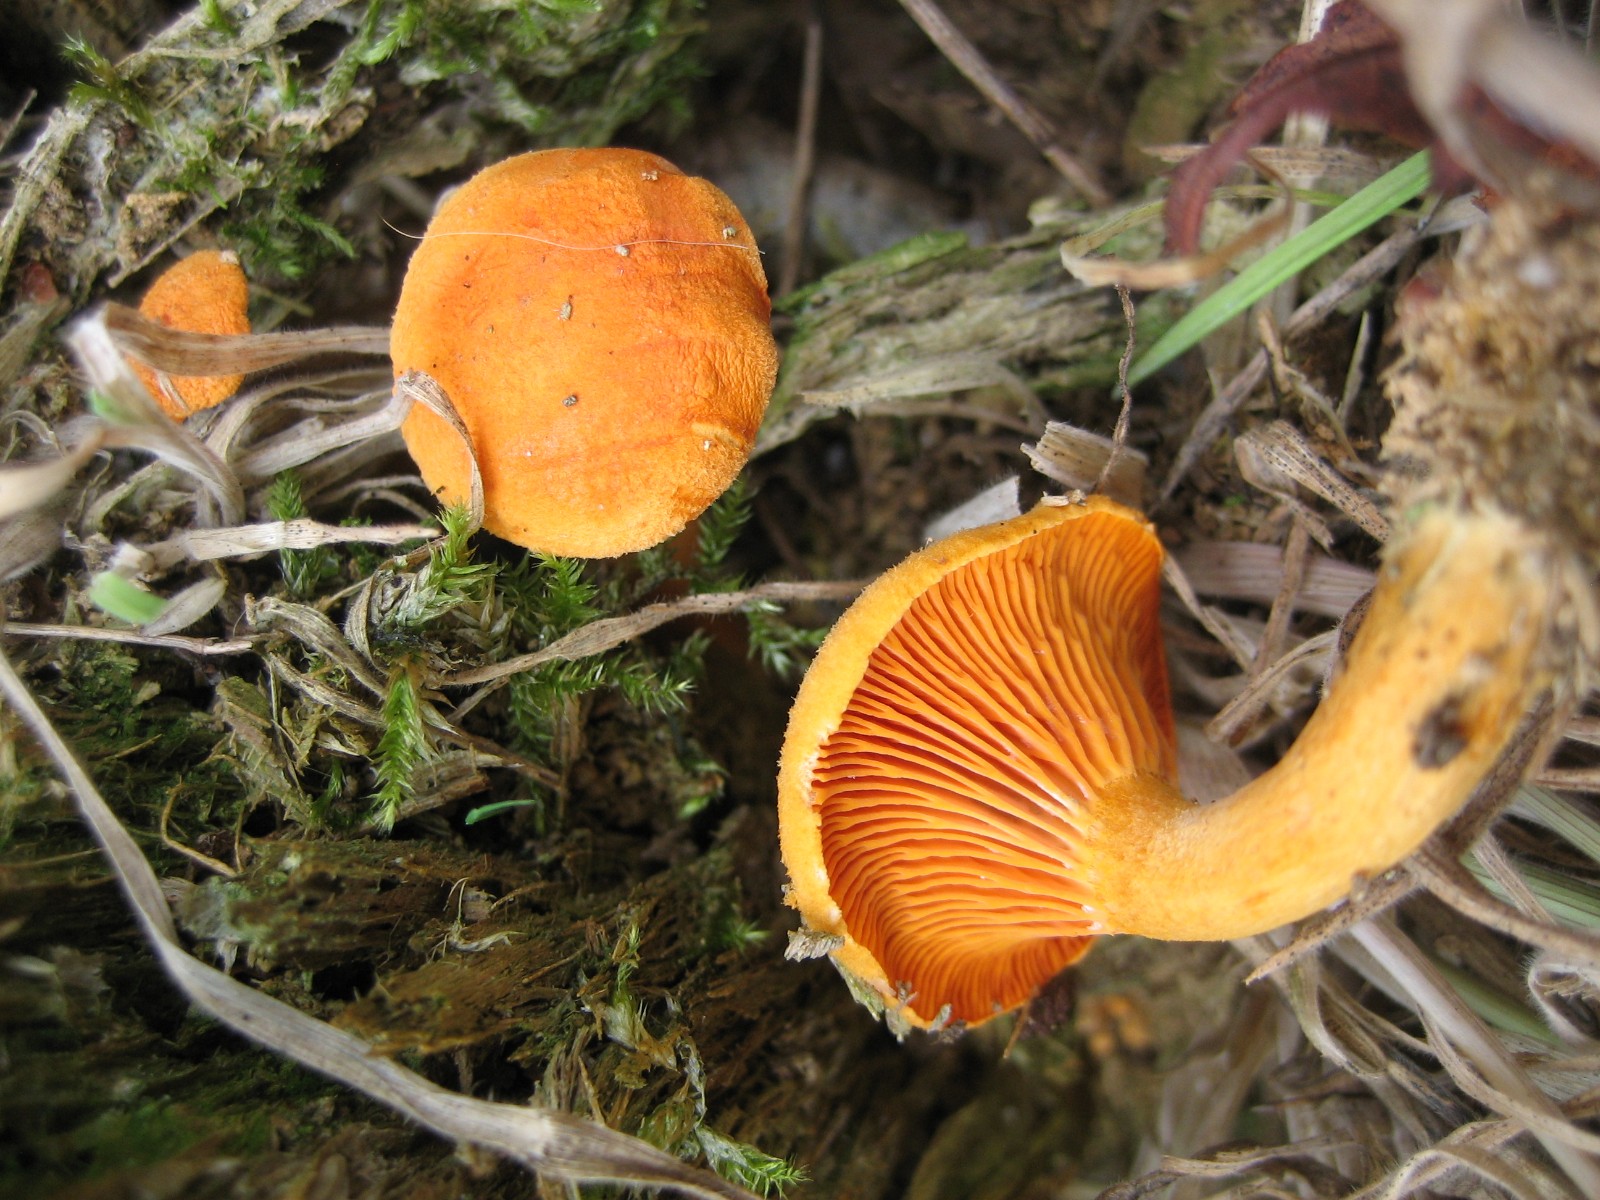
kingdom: Fungi
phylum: Basidiomycota
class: Agaricomycetes
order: Boletales
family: Hygrophoropsidaceae
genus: Hygrophoropsis
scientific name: Hygrophoropsis aurantiaca
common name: almindelig orangekantarel
